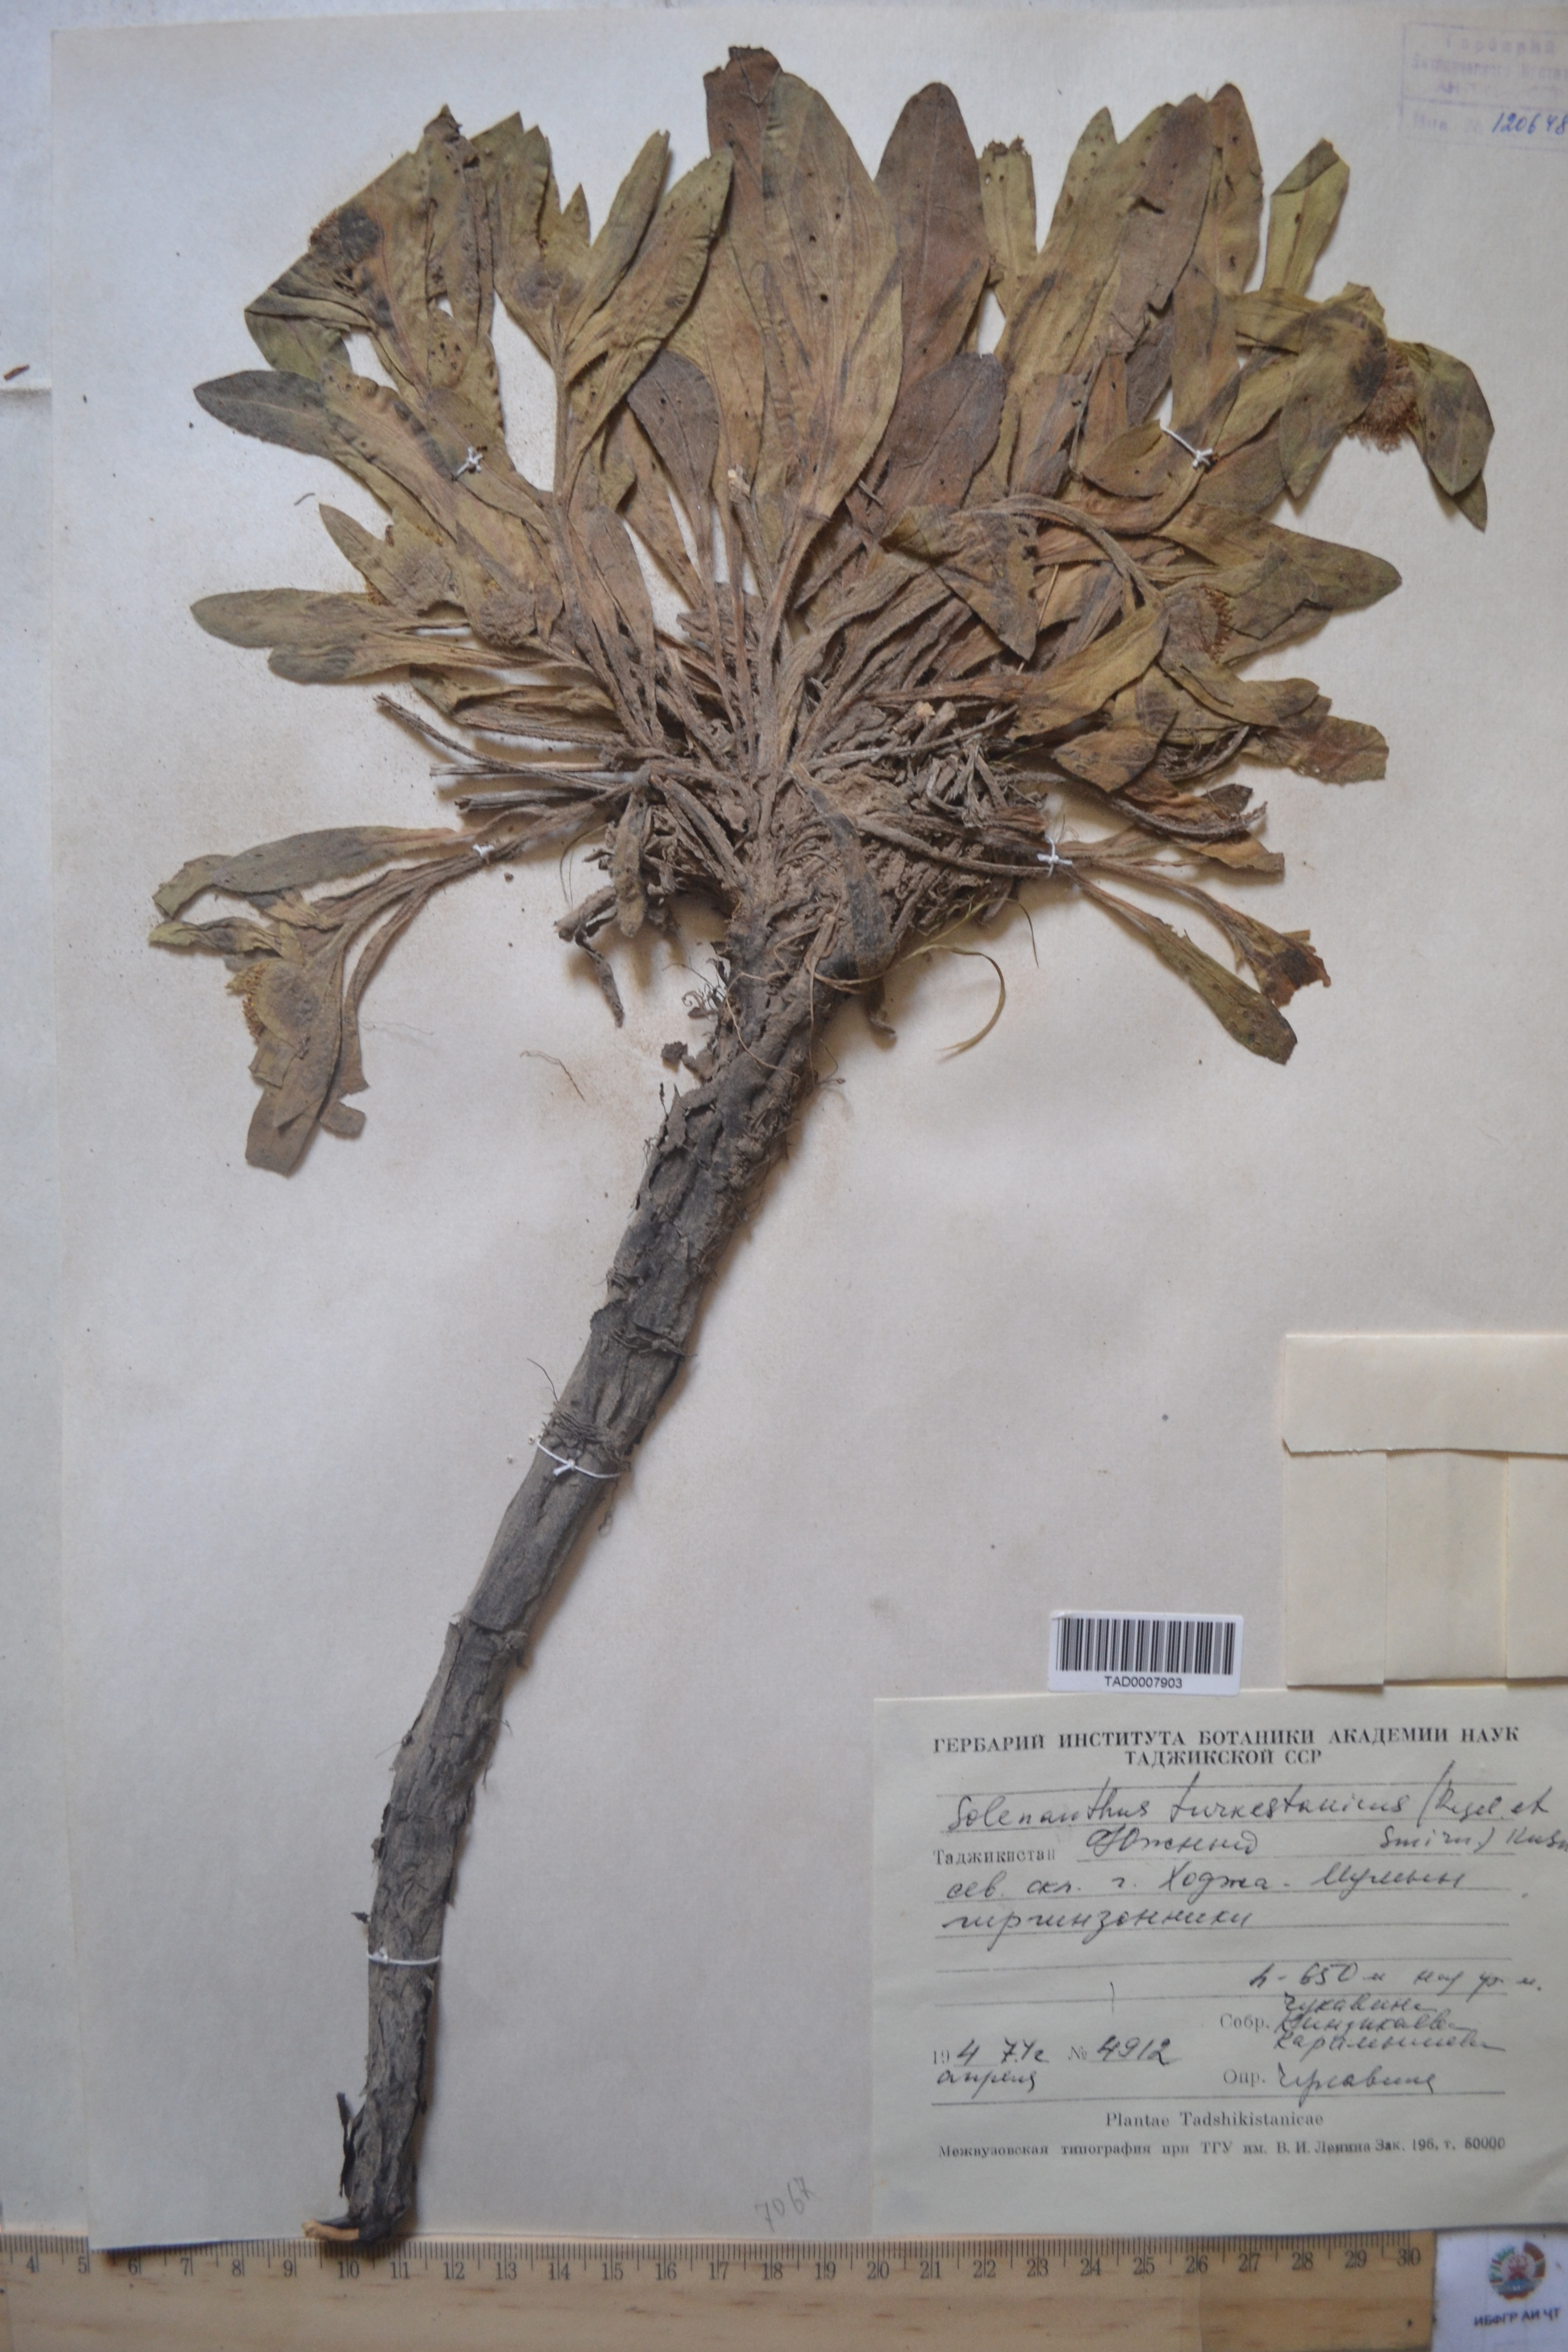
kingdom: Plantae
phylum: Tracheophyta
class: Magnoliopsida
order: Boraginales
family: Boraginaceae
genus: Solenanthus
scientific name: Solenanthus turkestanicus
